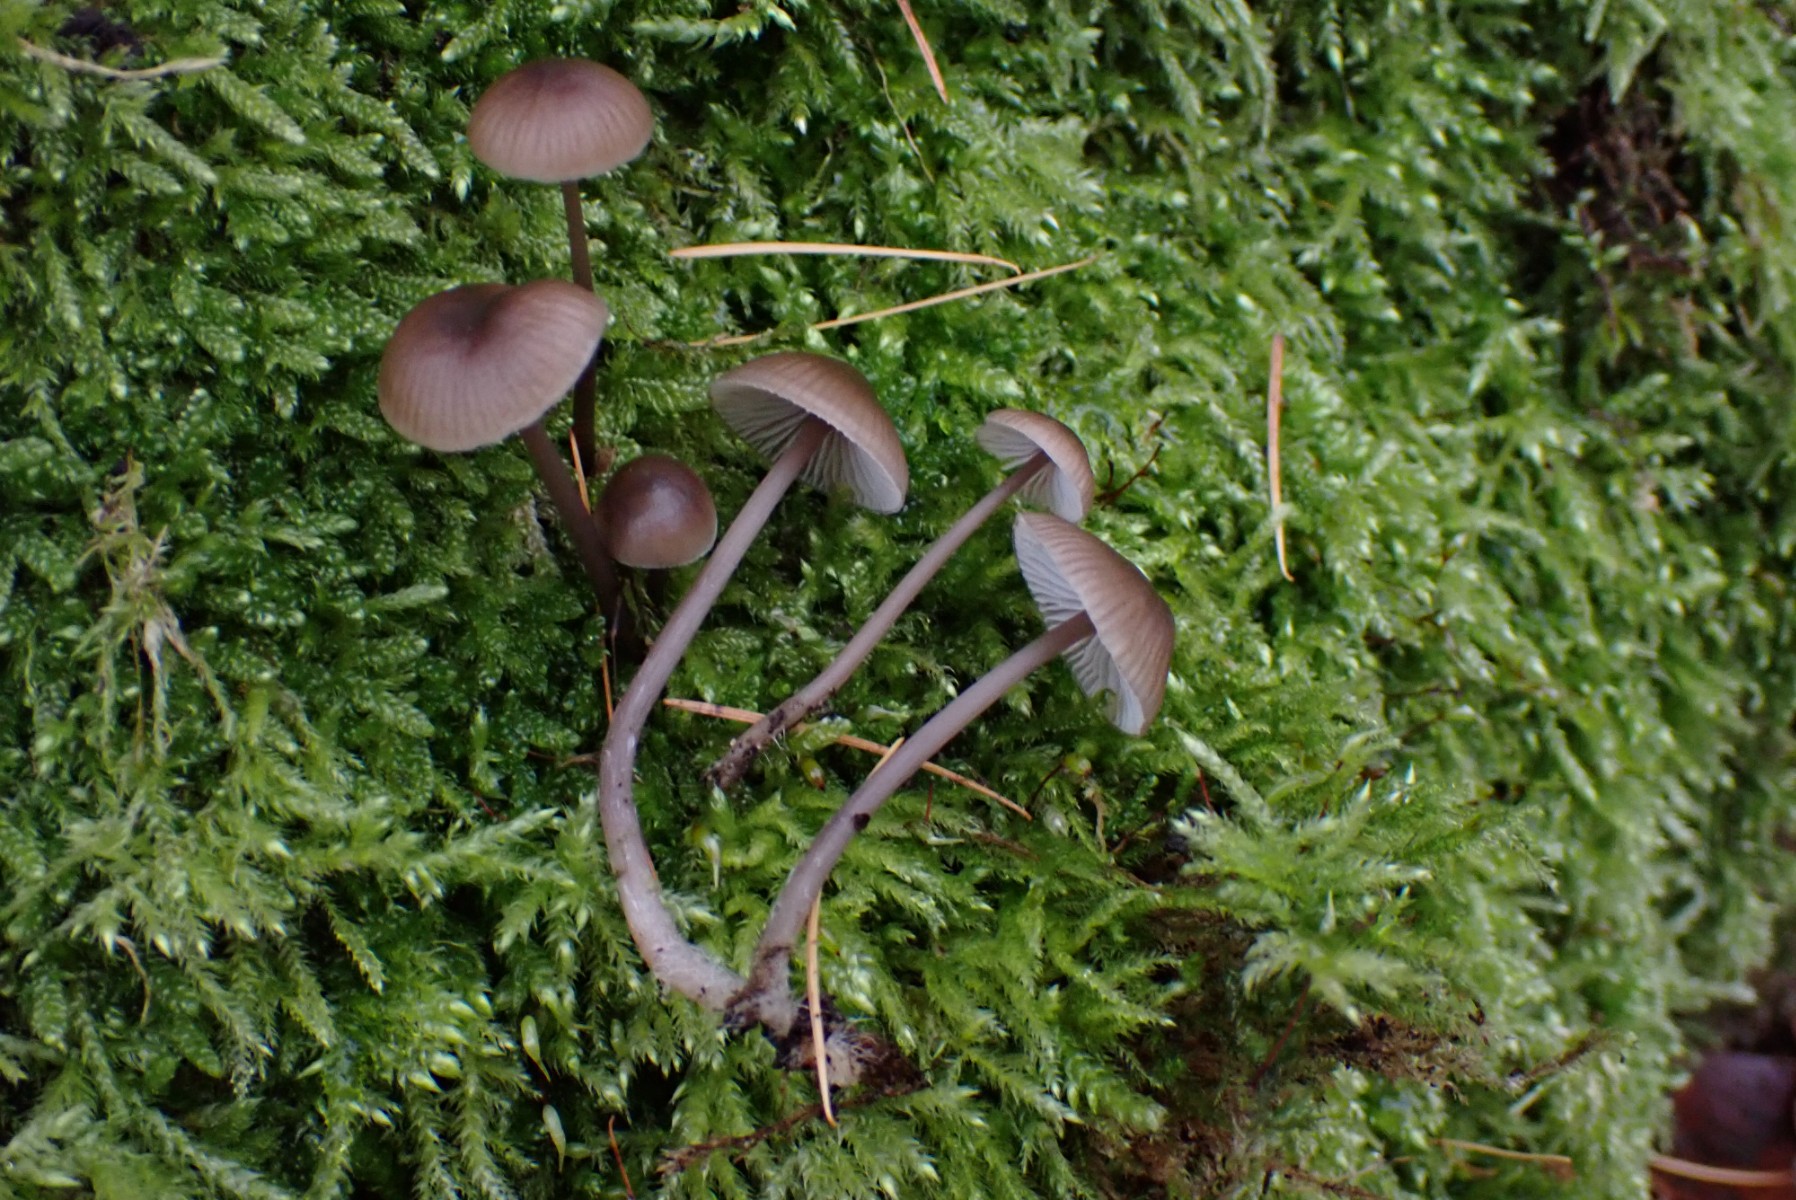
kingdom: Fungi
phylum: Basidiomycota
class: Agaricomycetes
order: Agaricales
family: Mycenaceae
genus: Mycena
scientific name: Mycena polygramma
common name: mangestribet huesvamp
